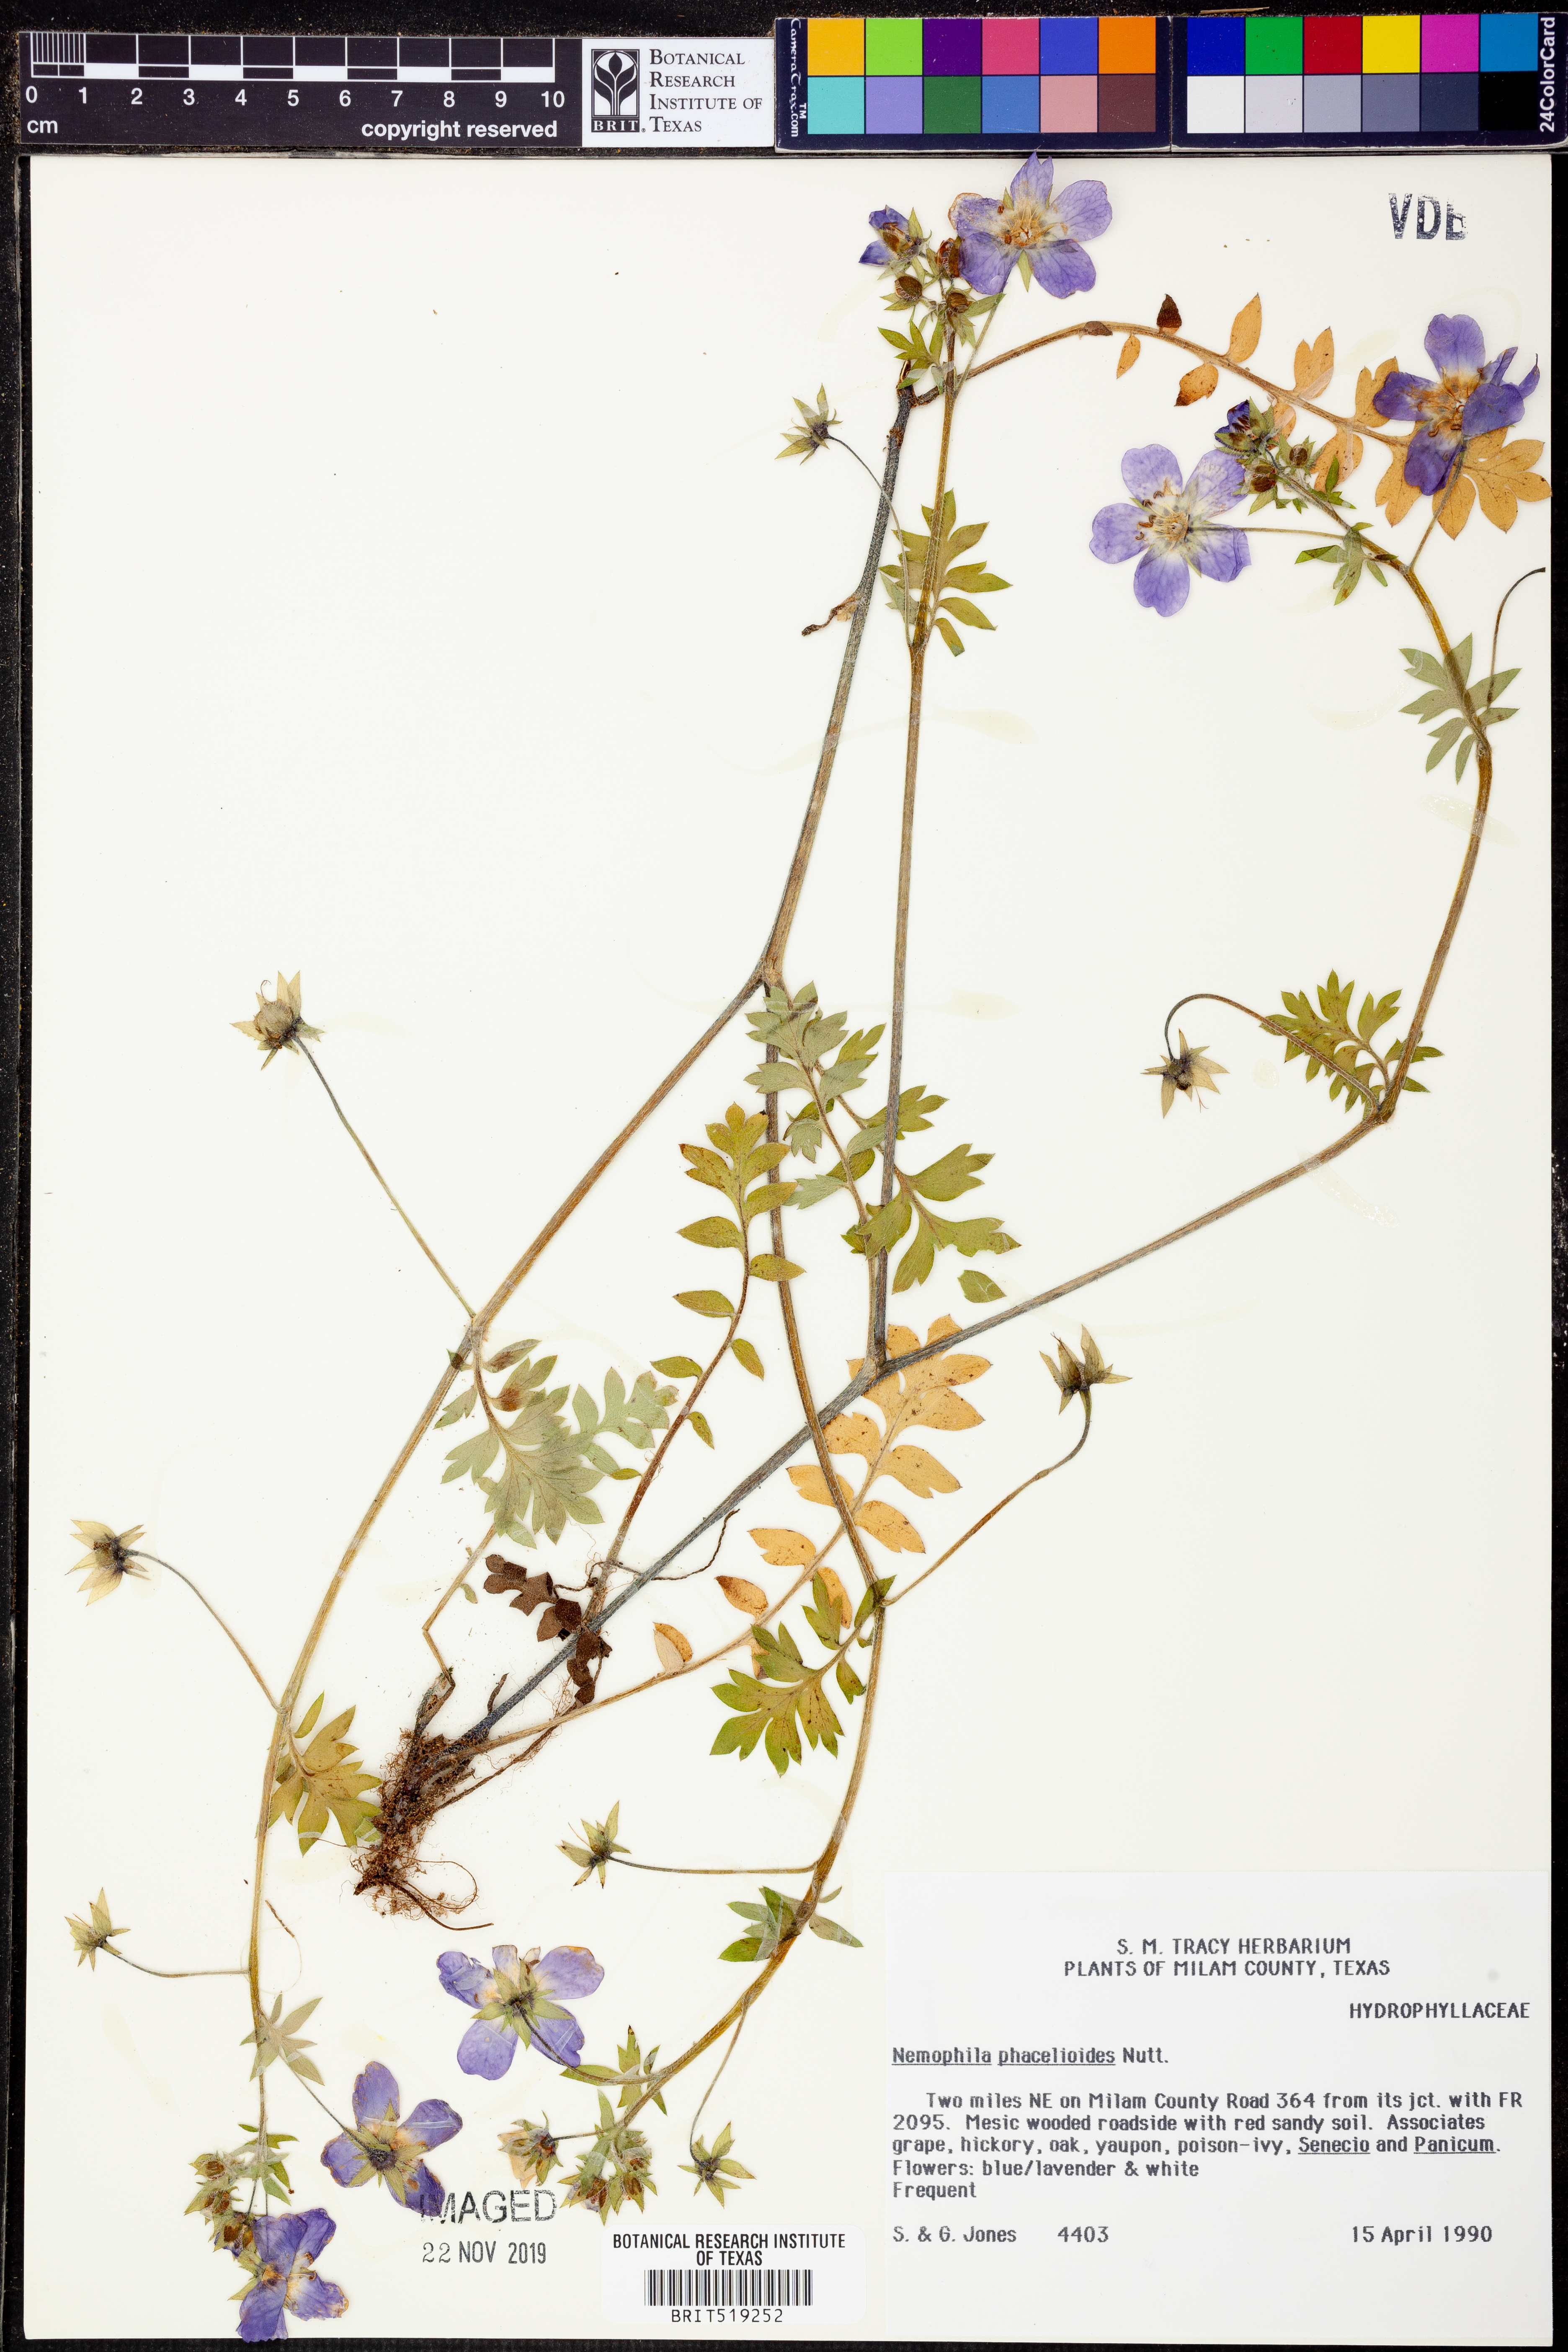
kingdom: Plantae
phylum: Tracheophyta
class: Magnoliopsida
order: Boraginales
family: Hydrophyllaceae
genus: Nemophila
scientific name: Nemophila phacelioides
